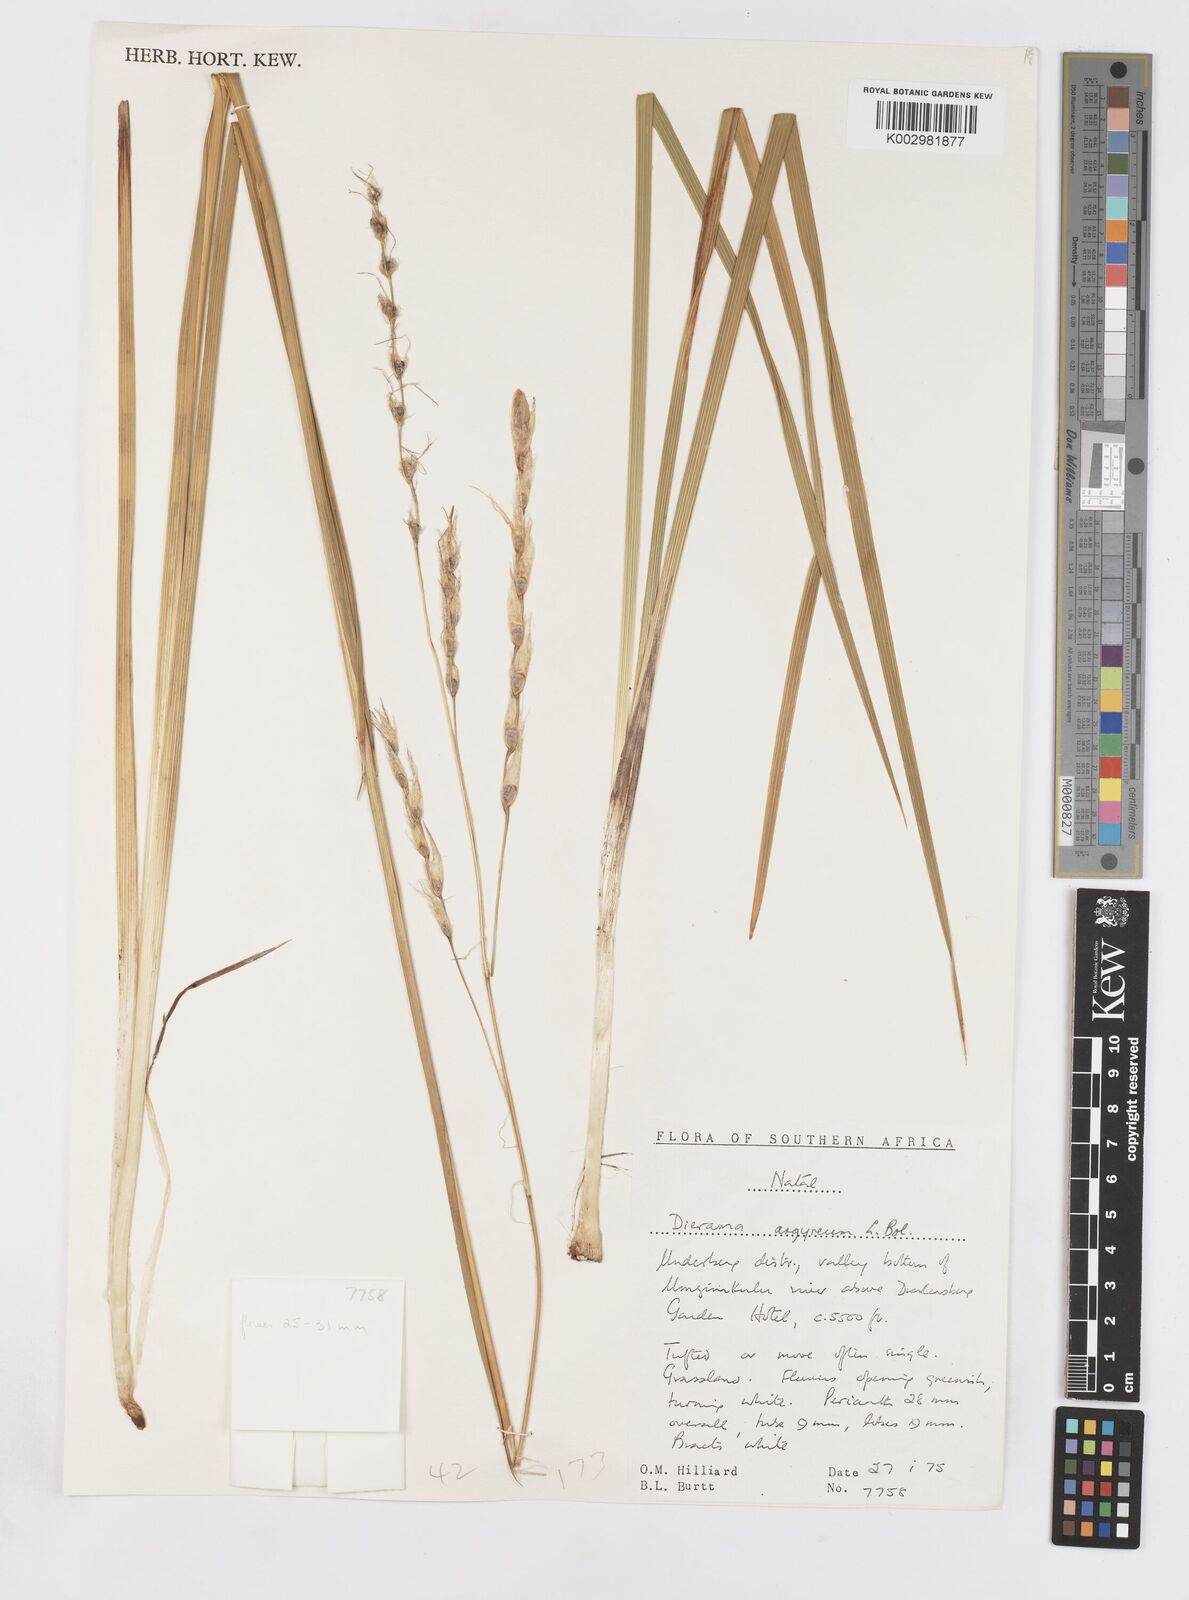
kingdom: Plantae
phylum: Tracheophyta
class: Liliopsida
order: Asparagales
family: Iridaceae
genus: Dierama
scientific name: Dierama argyreum
